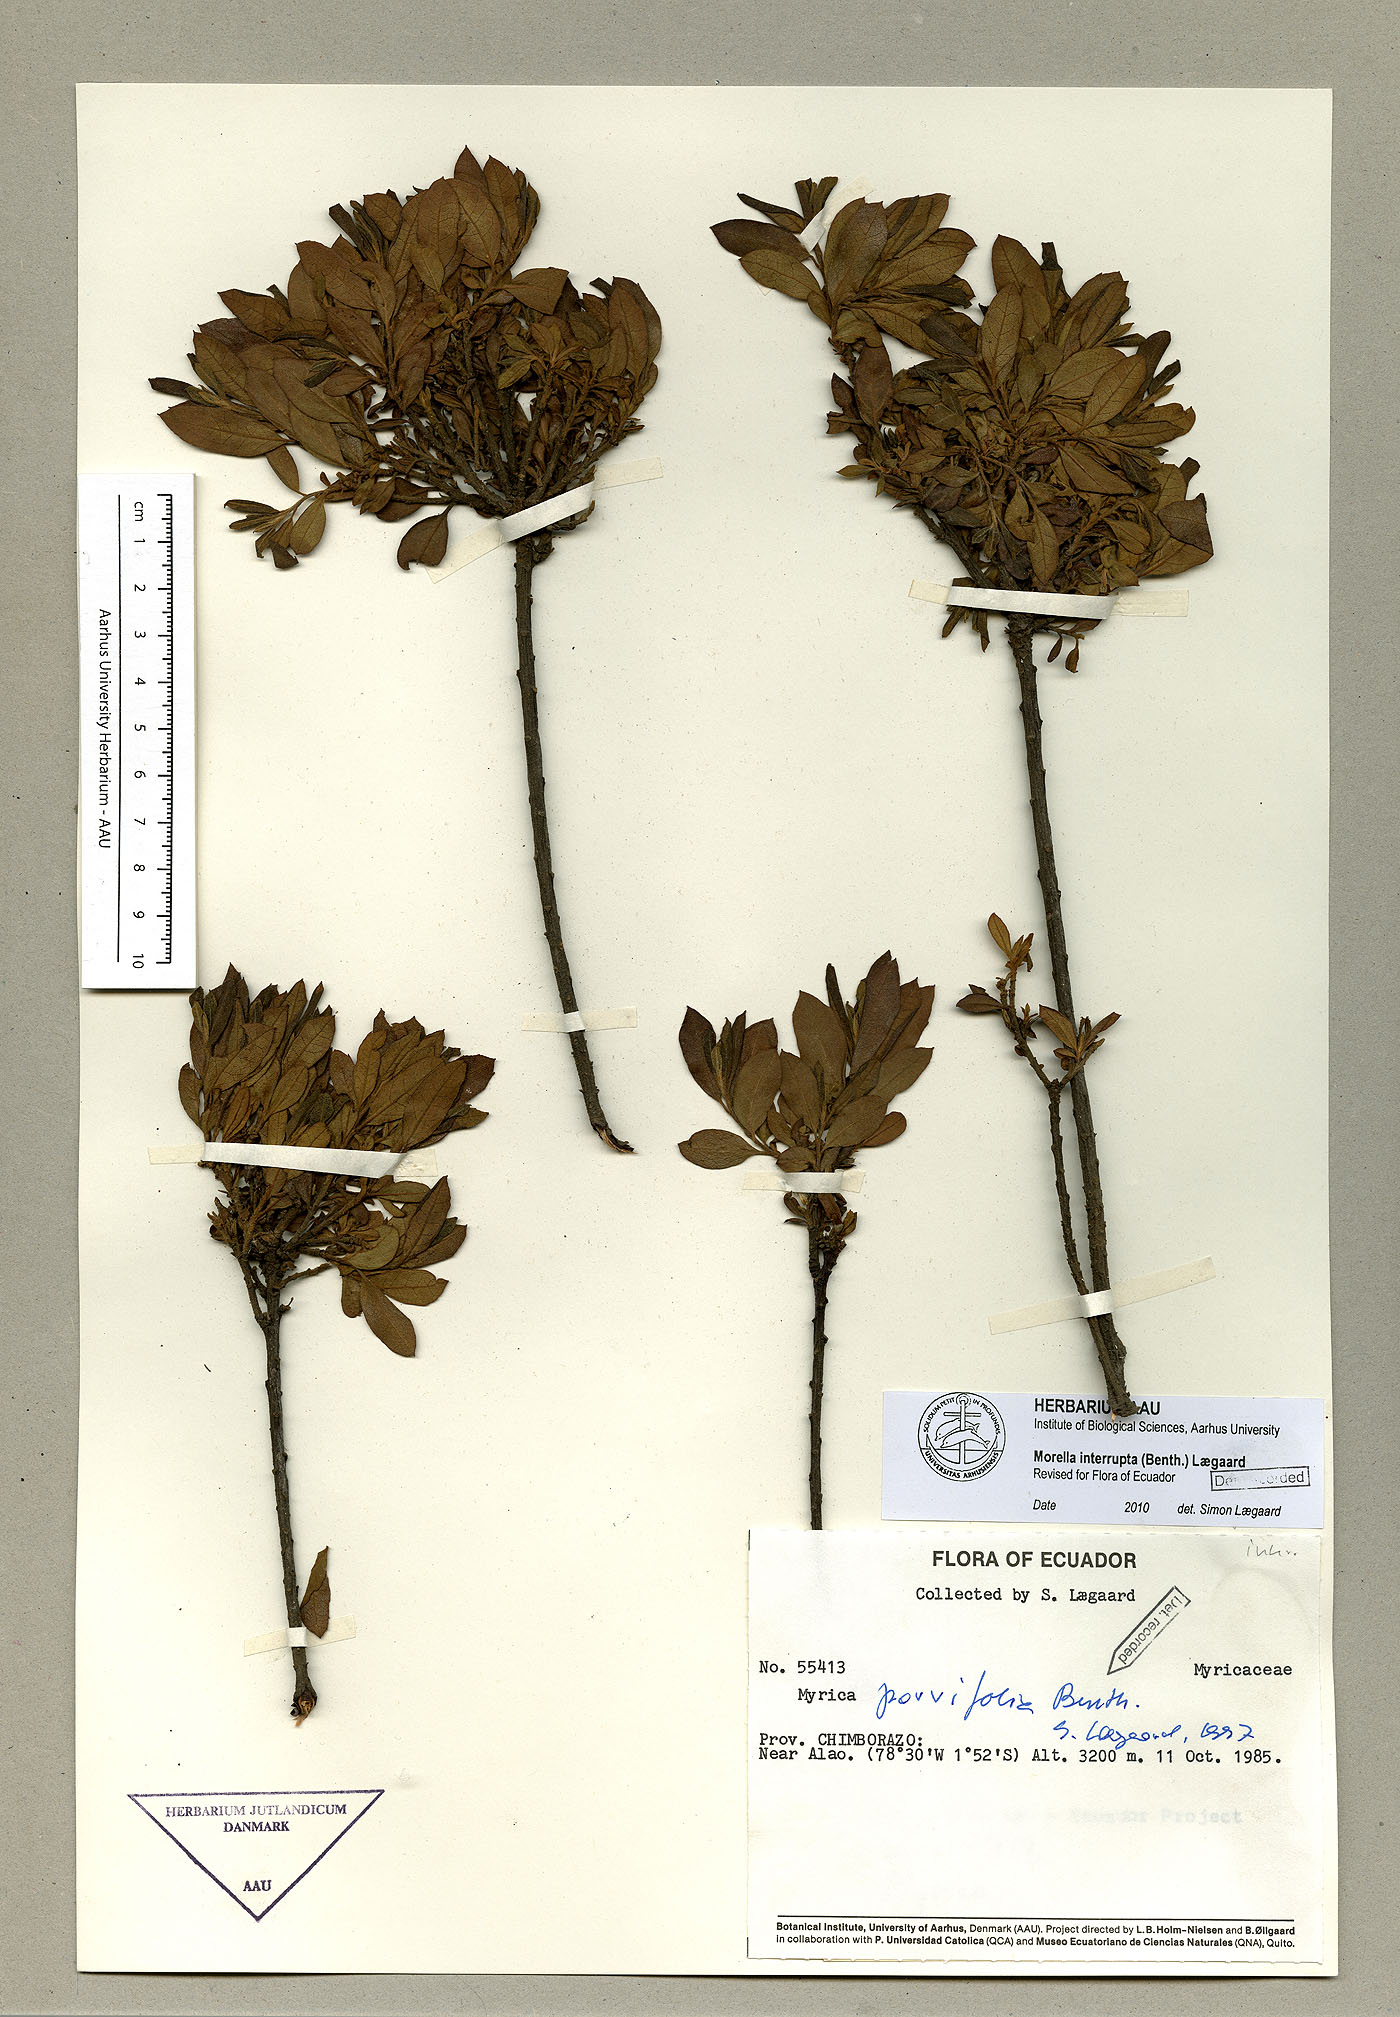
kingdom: Plantae
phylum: Tracheophyta
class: Magnoliopsida
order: Fagales
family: Myricaceae
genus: Morella
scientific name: Morella interrupta
